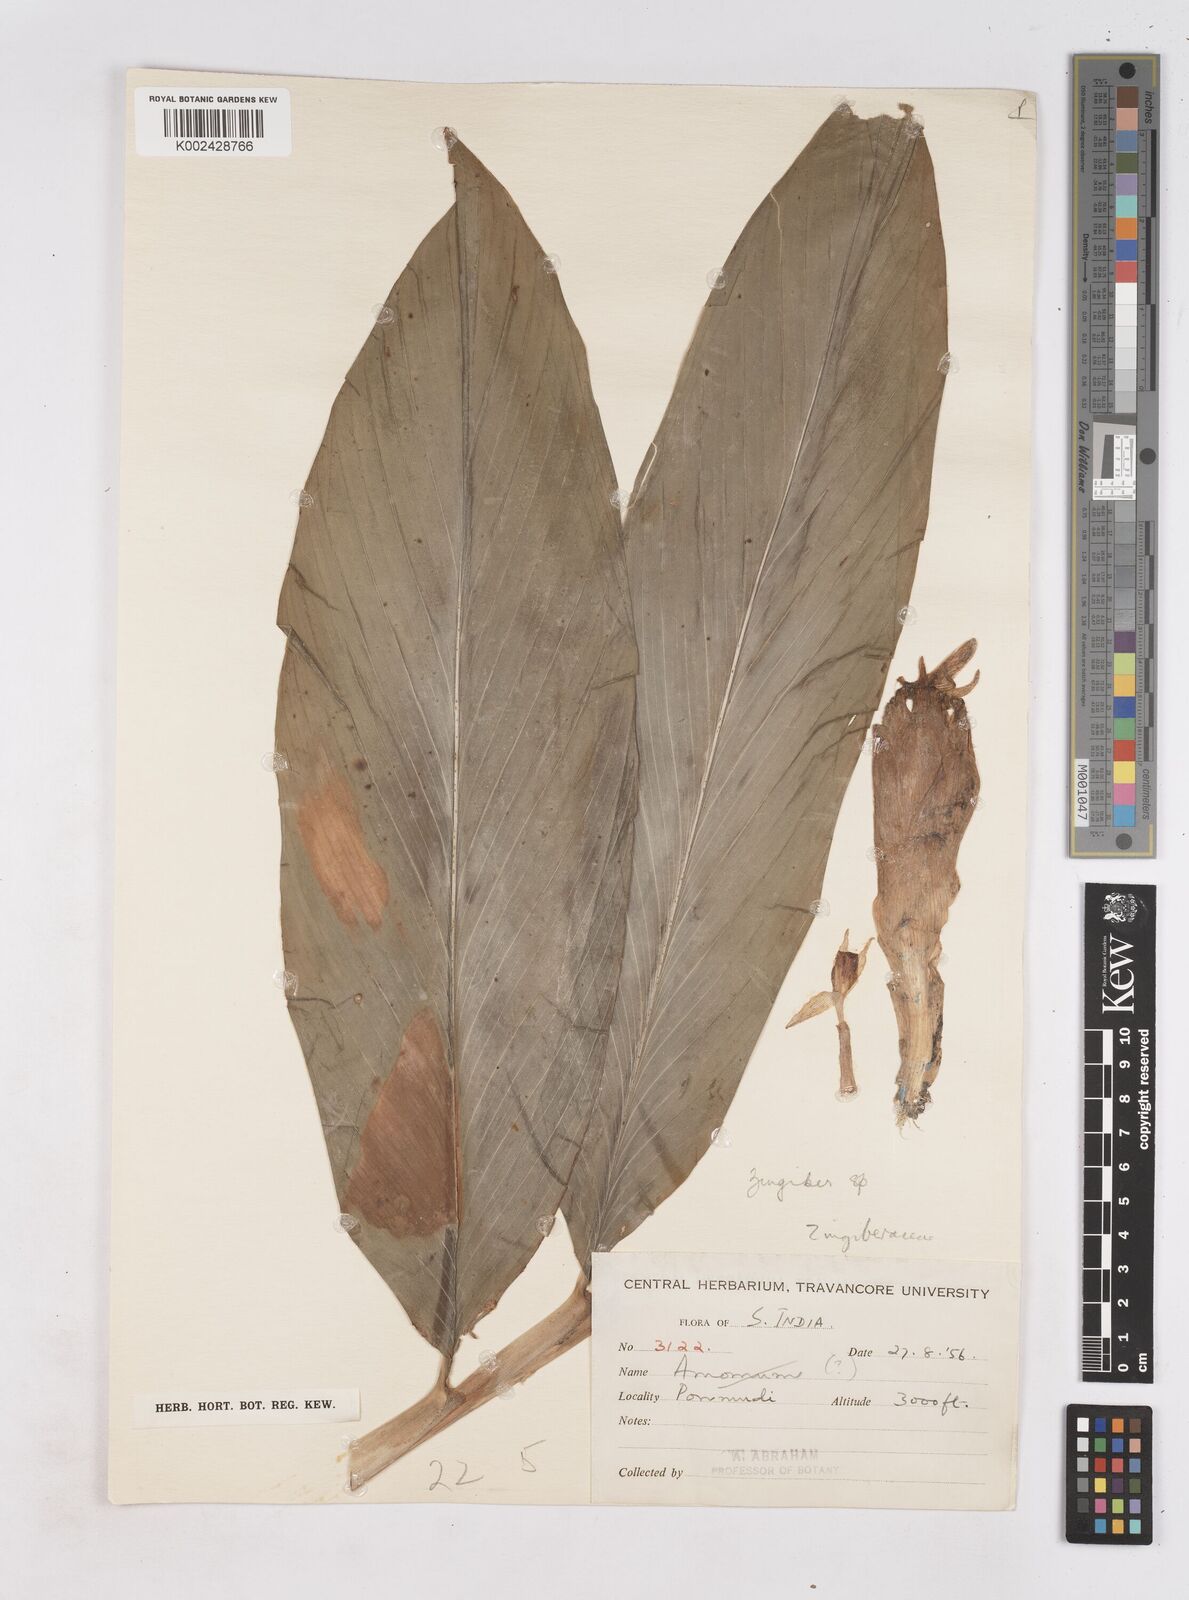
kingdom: Plantae
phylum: Tracheophyta
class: Liliopsida
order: Zingiberales
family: Zingiberaceae
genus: Zingiber
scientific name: Zingiber
